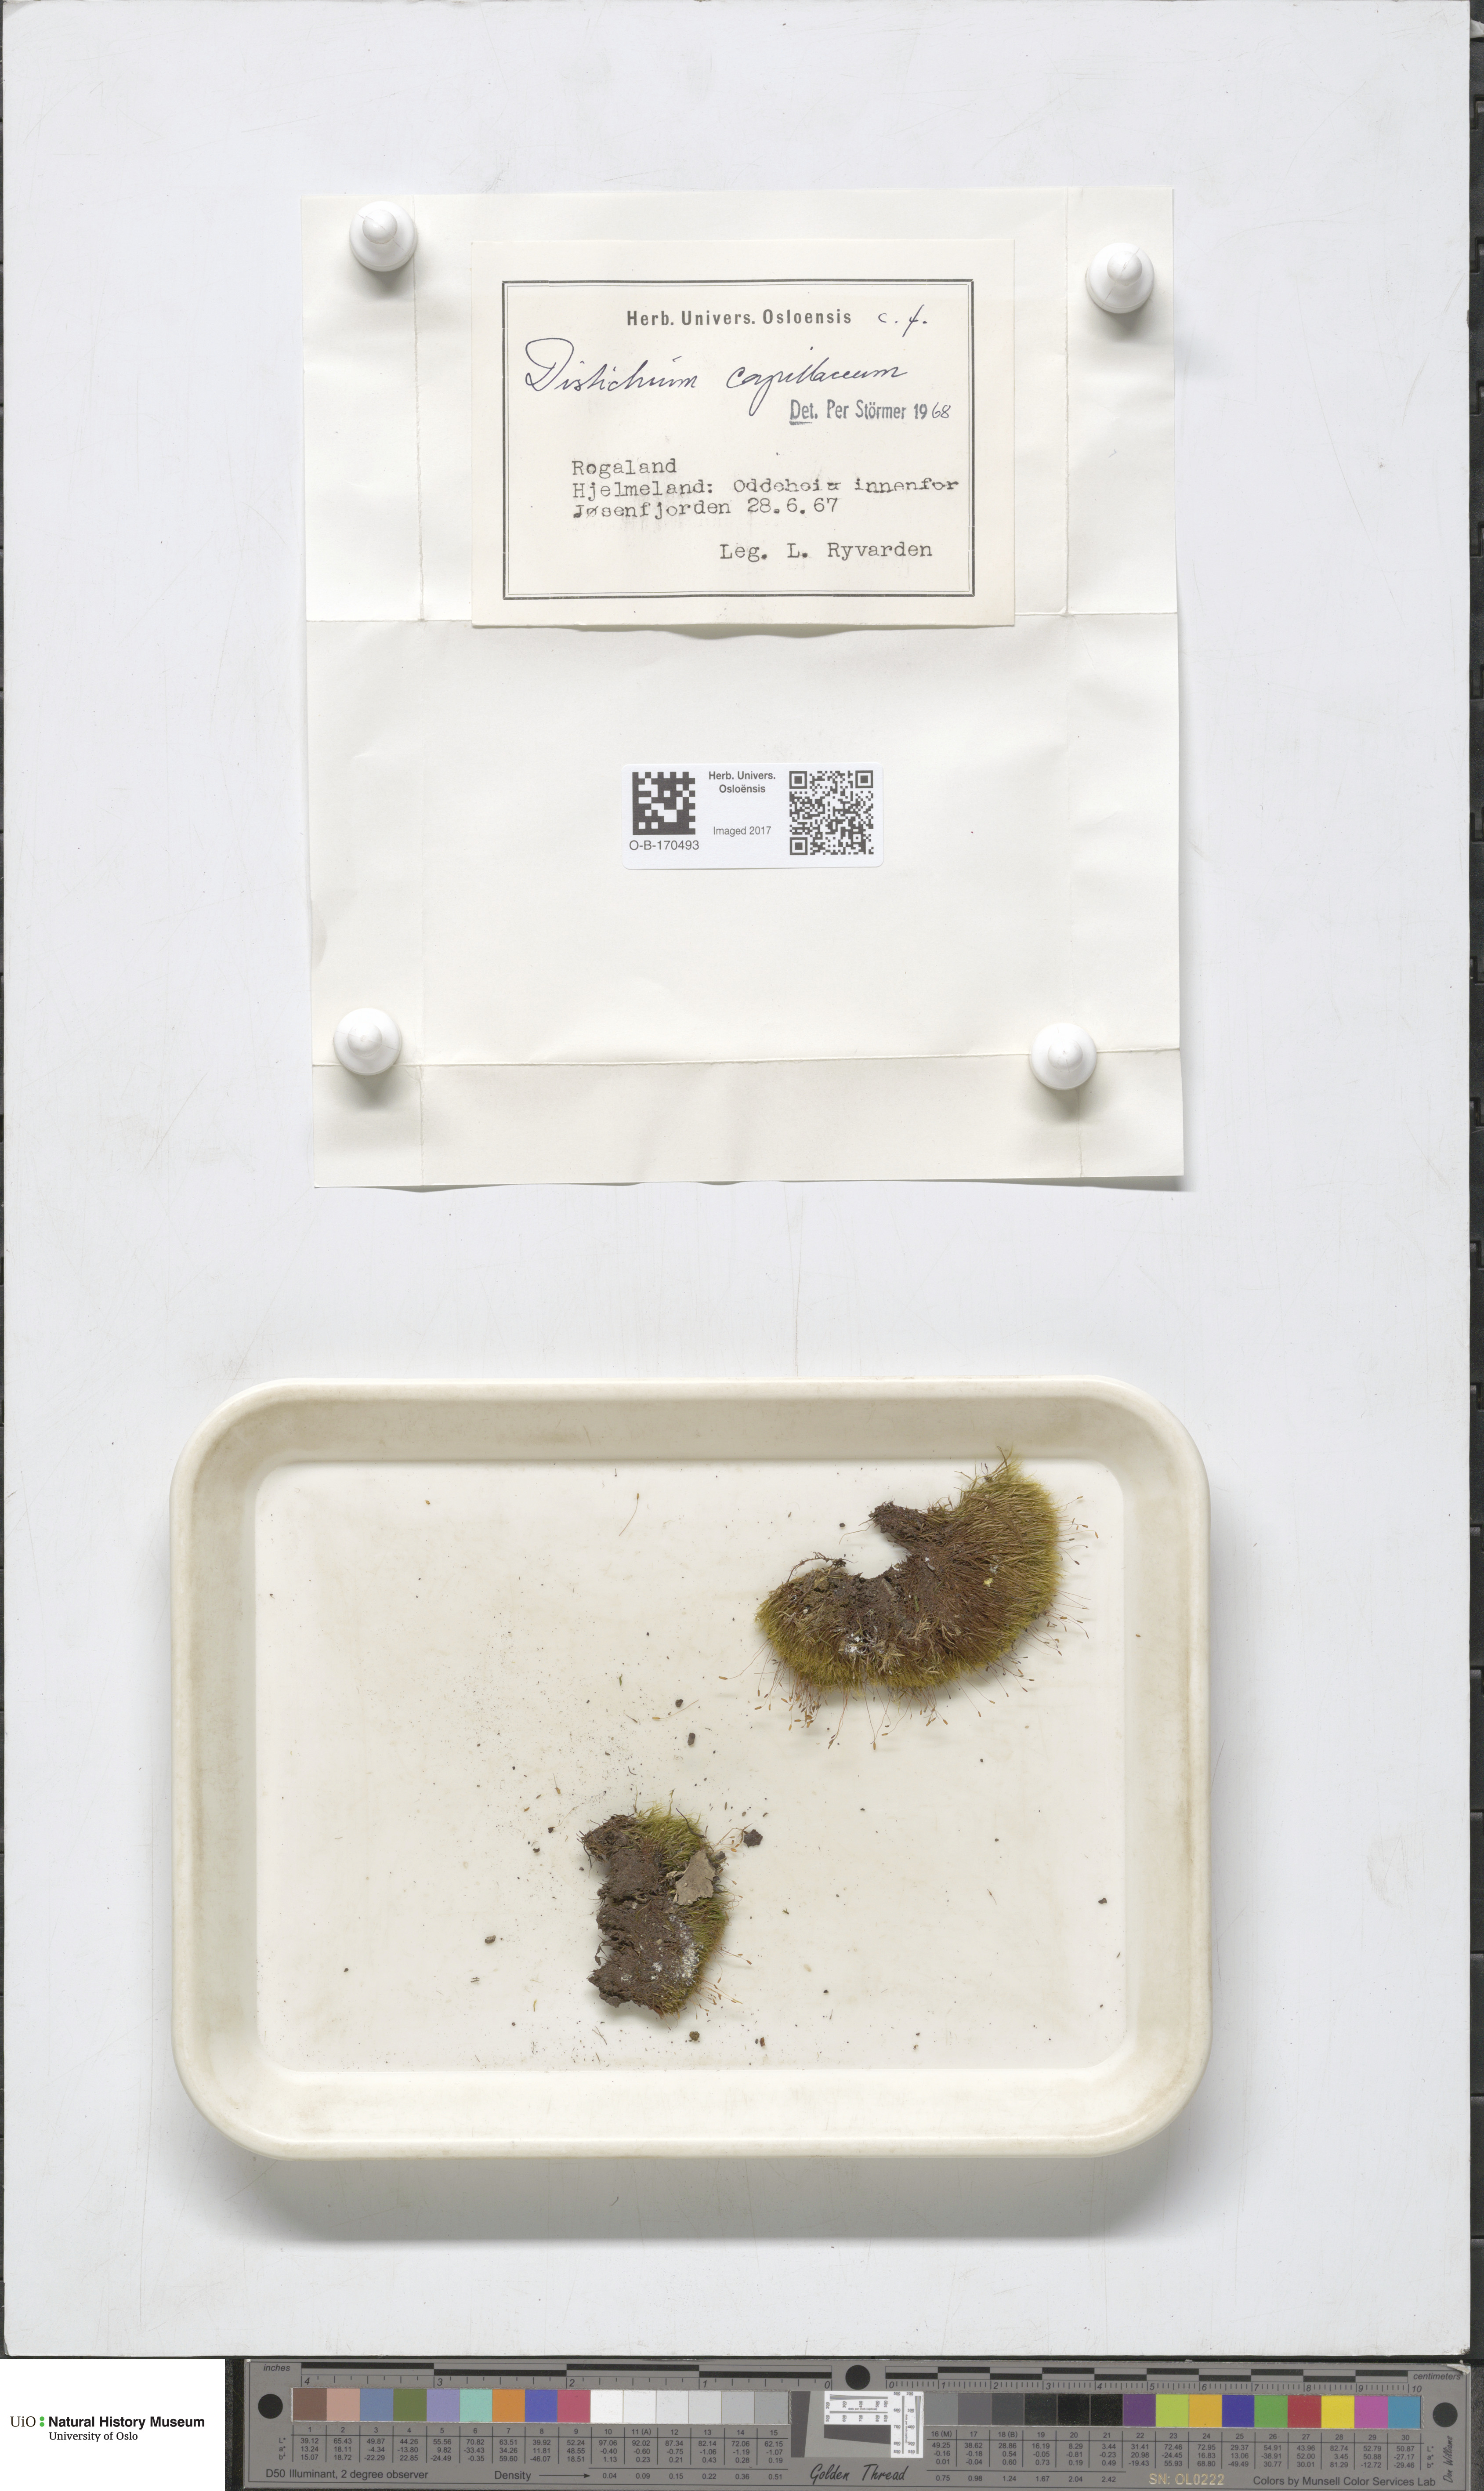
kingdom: Plantae
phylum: Bryophyta
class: Bryopsida
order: Scouleriales
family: Distichiaceae
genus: Distichium
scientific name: Distichium capillaceum
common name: Erect-fruited iris moss
